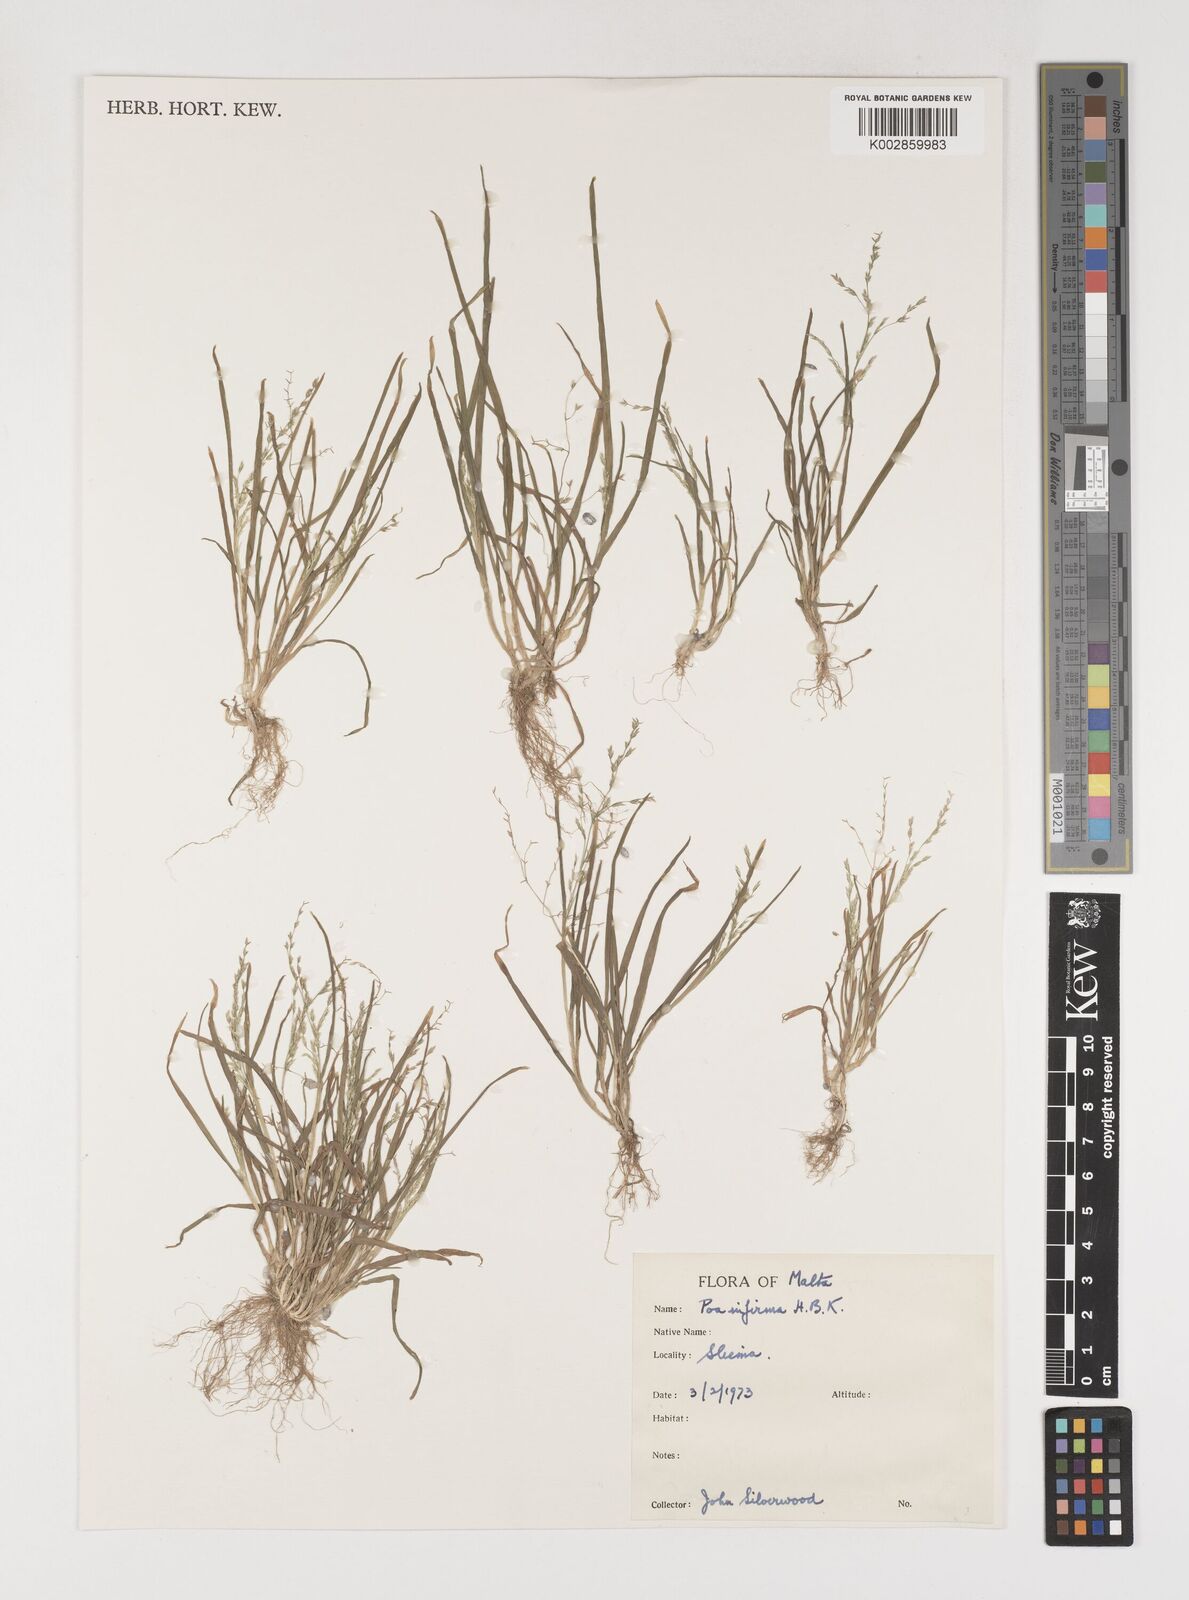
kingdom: Plantae
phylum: Tracheophyta
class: Liliopsida
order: Poales
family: Poaceae
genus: Poa
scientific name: Poa infirma
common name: Weak bluegrass
